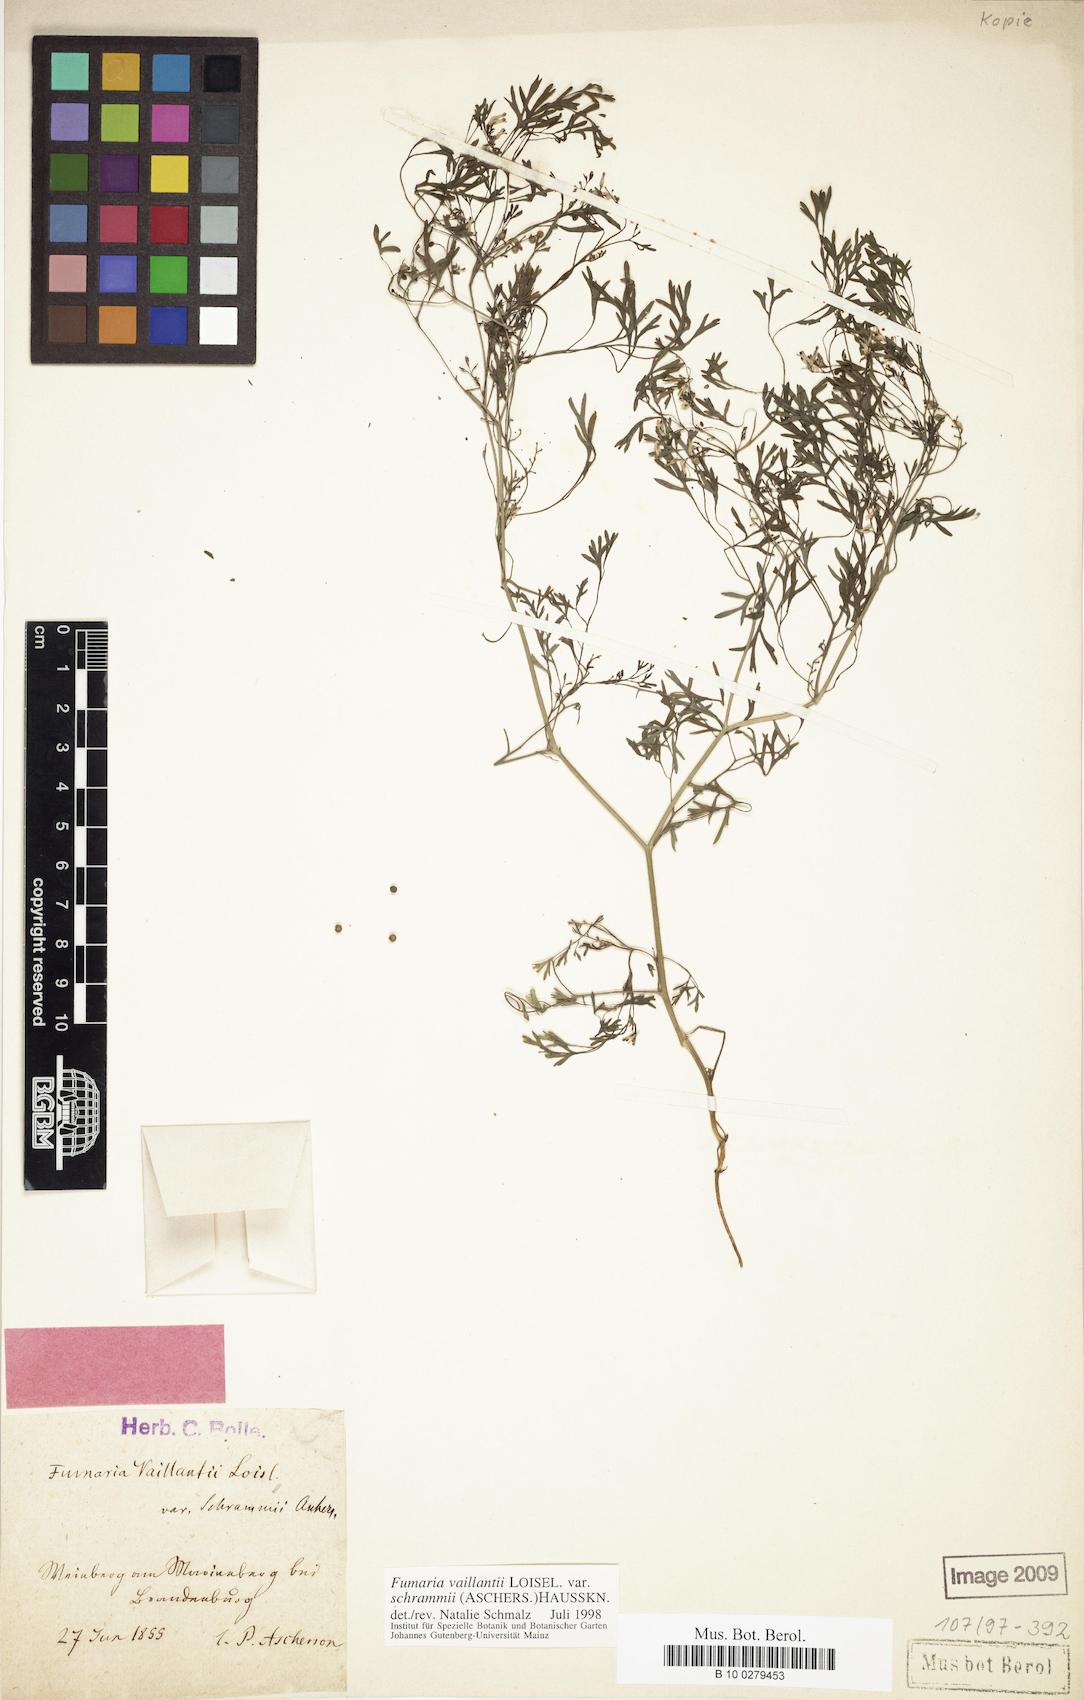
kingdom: Plantae
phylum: Tracheophyta
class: Magnoliopsida
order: Ranunculales
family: Papaveraceae
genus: Fumaria
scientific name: Fumaria vaillantii
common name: Few-flowered fumitory
